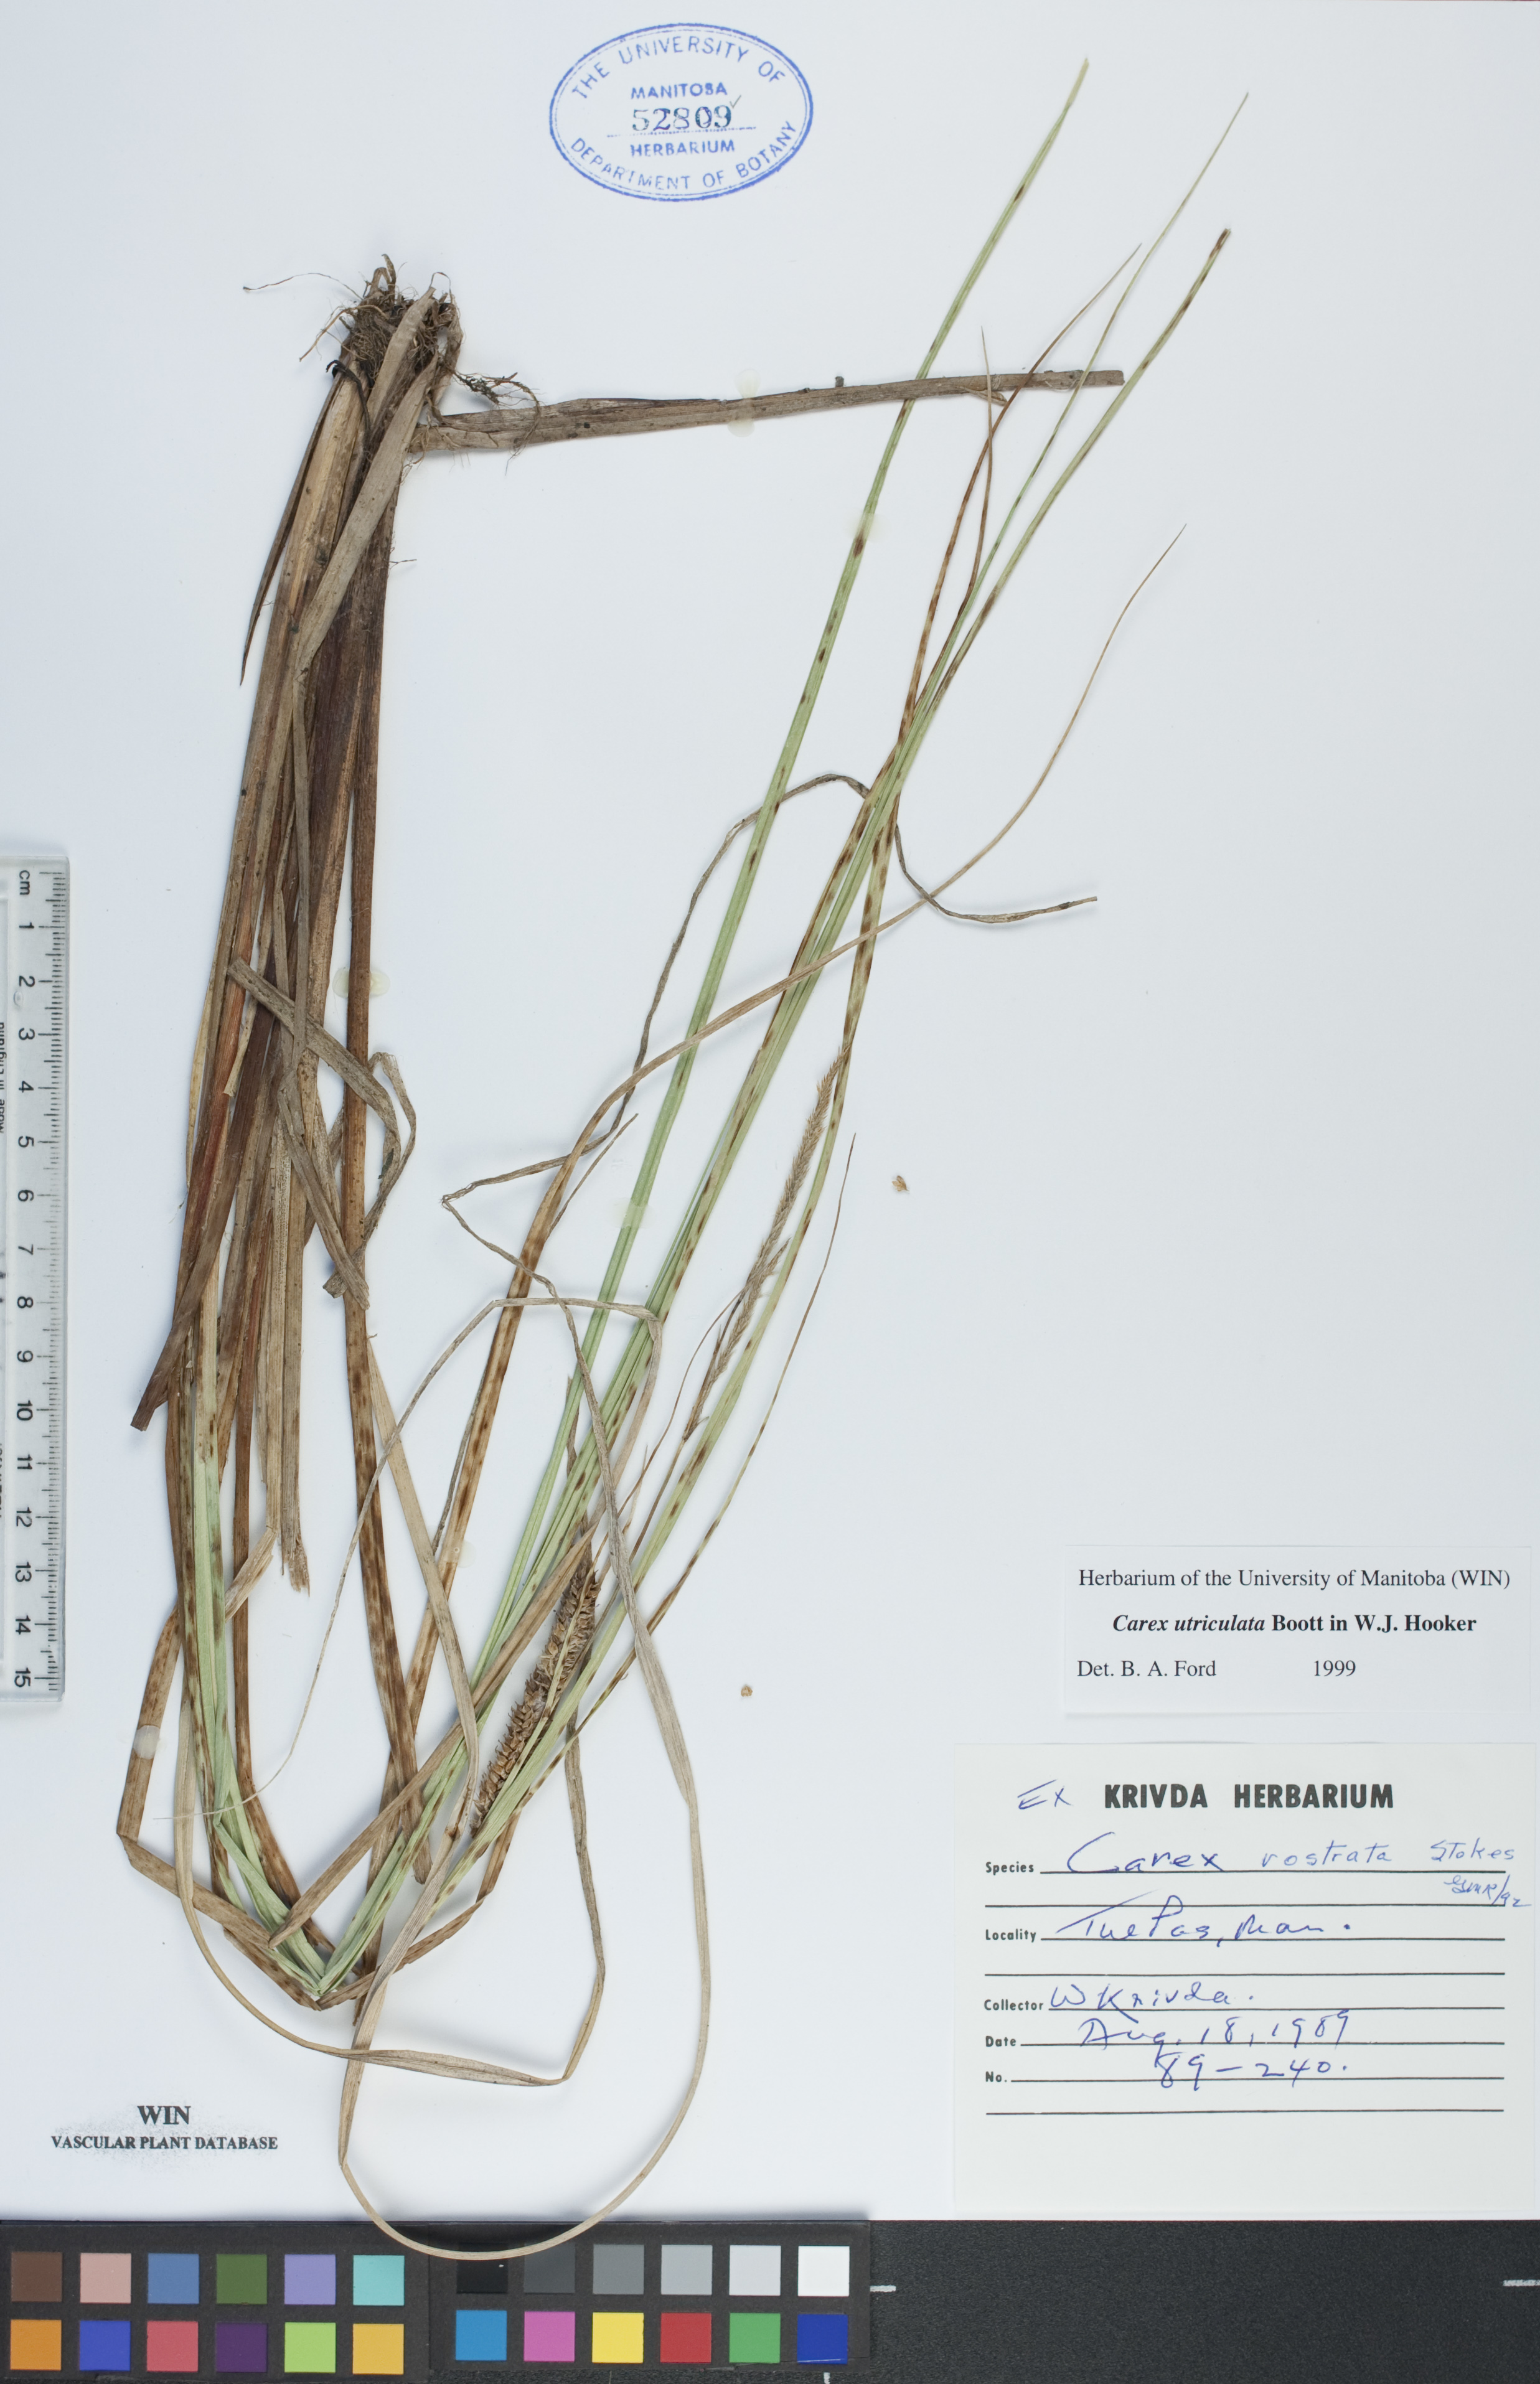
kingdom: Plantae
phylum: Tracheophyta
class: Liliopsida
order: Poales
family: Cyperaceae
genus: Carex
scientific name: Carex utriculata
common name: Beaked sedge
